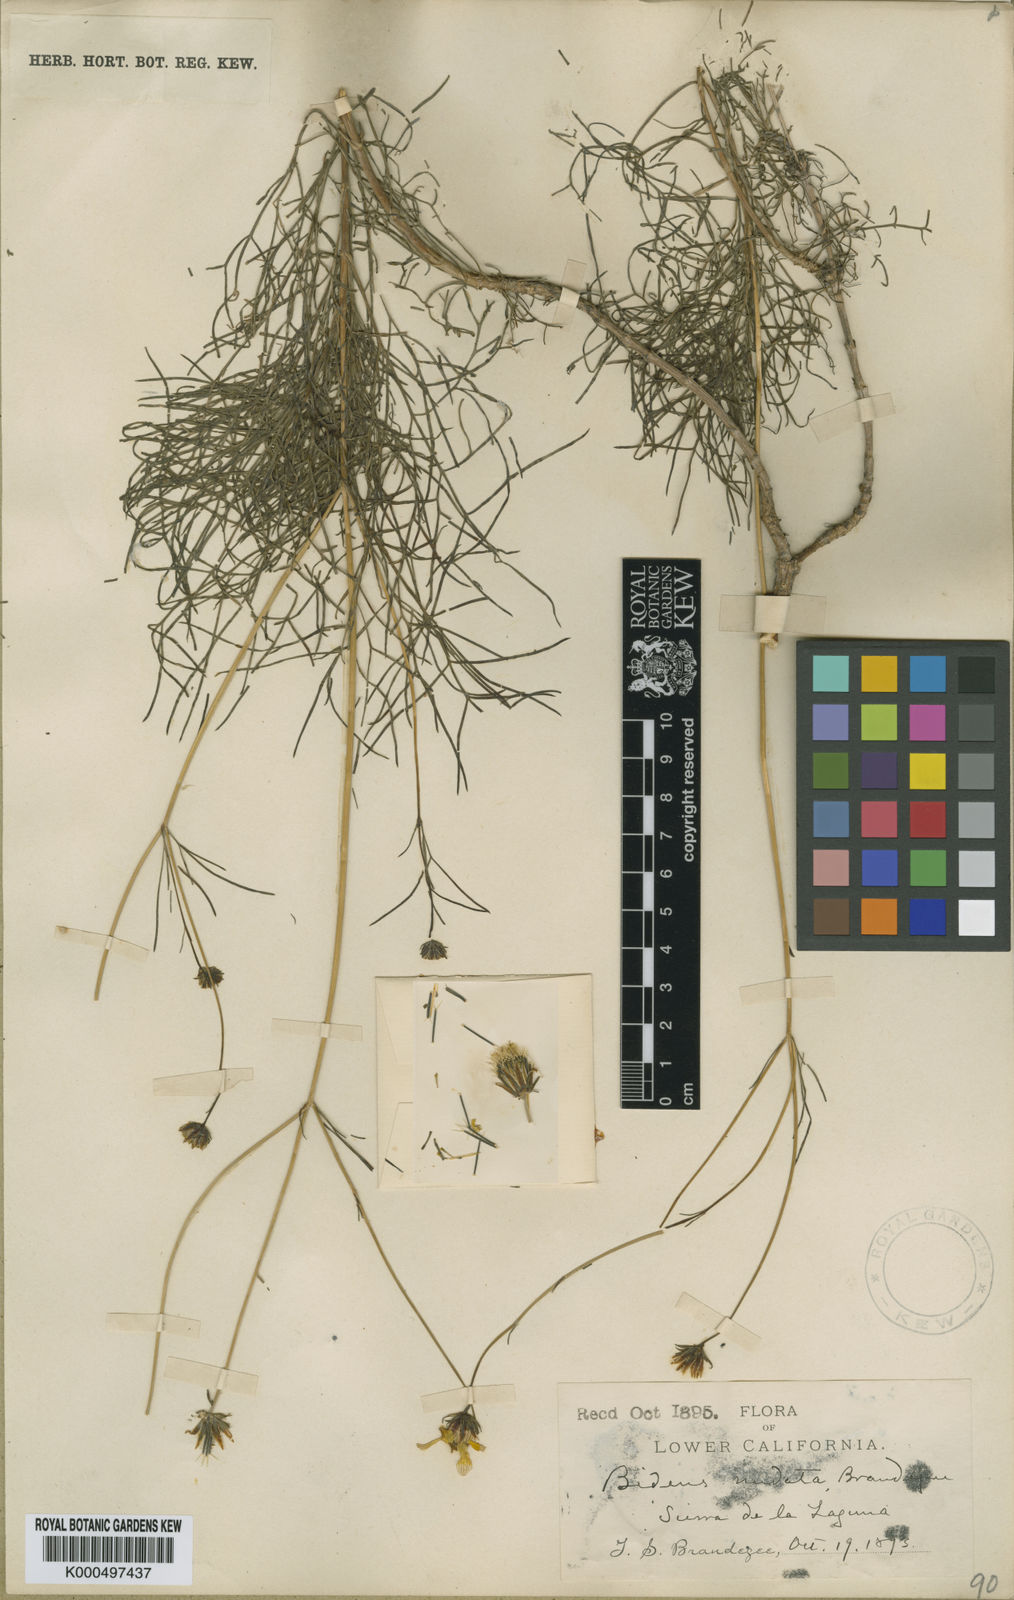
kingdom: Plantae
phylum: Tracheophyta
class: Magnoliopsida
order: Asterales
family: Asteraceae
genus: Bidens
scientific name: Bidens nudata
